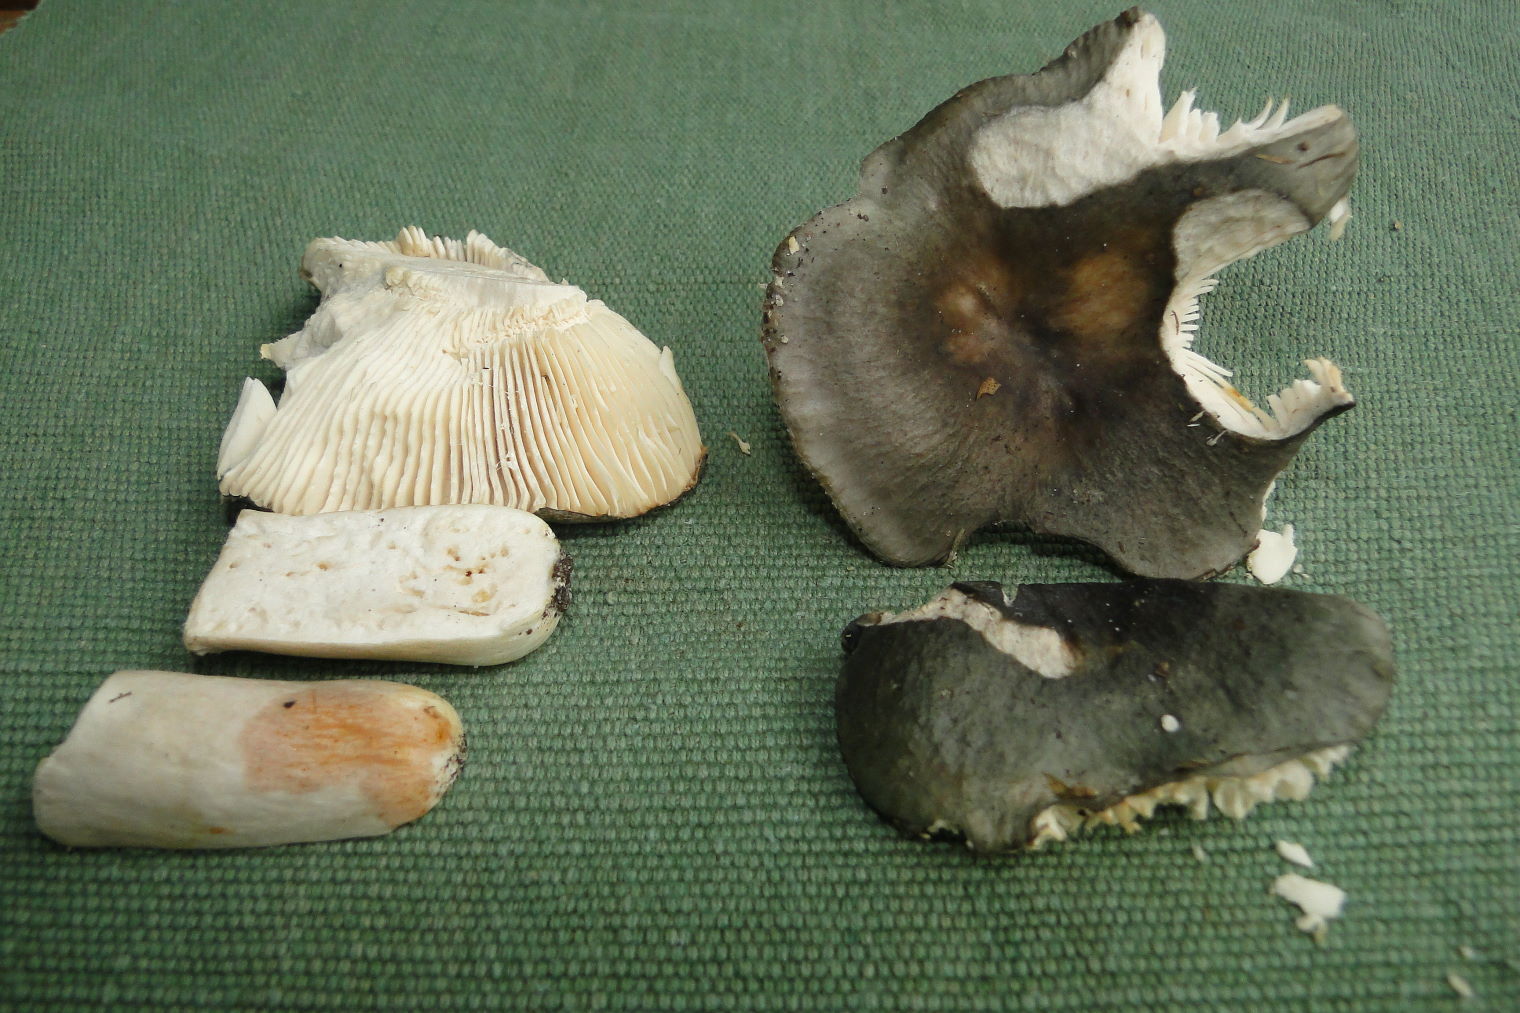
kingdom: Fungi
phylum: Basidiomycota
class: Agaricomycetes
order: Russulales
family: Russulaceae
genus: Russula
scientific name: Russula grisea
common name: grålig skørhat
